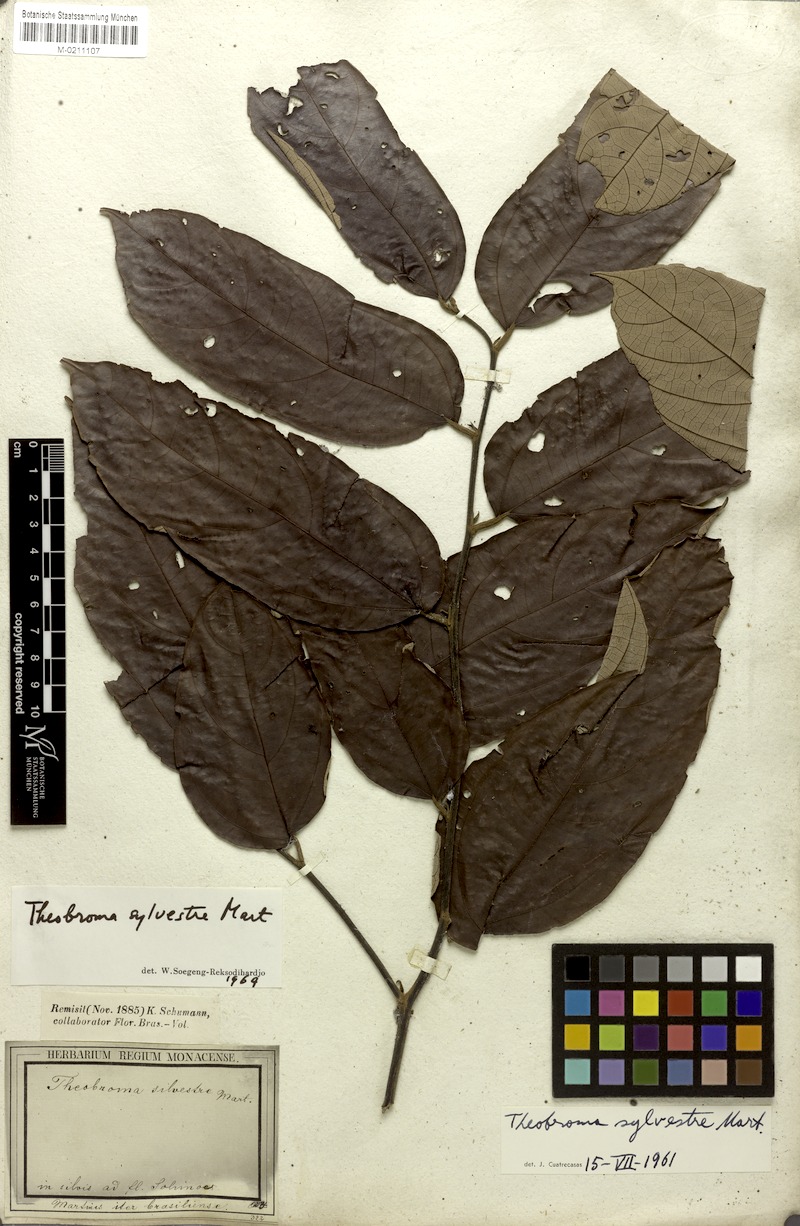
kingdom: Plantae
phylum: Tracheophyta
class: Magnoliopsida
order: Malvales
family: Malvaceae
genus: Theobroma
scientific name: Theobroma sylvestre
